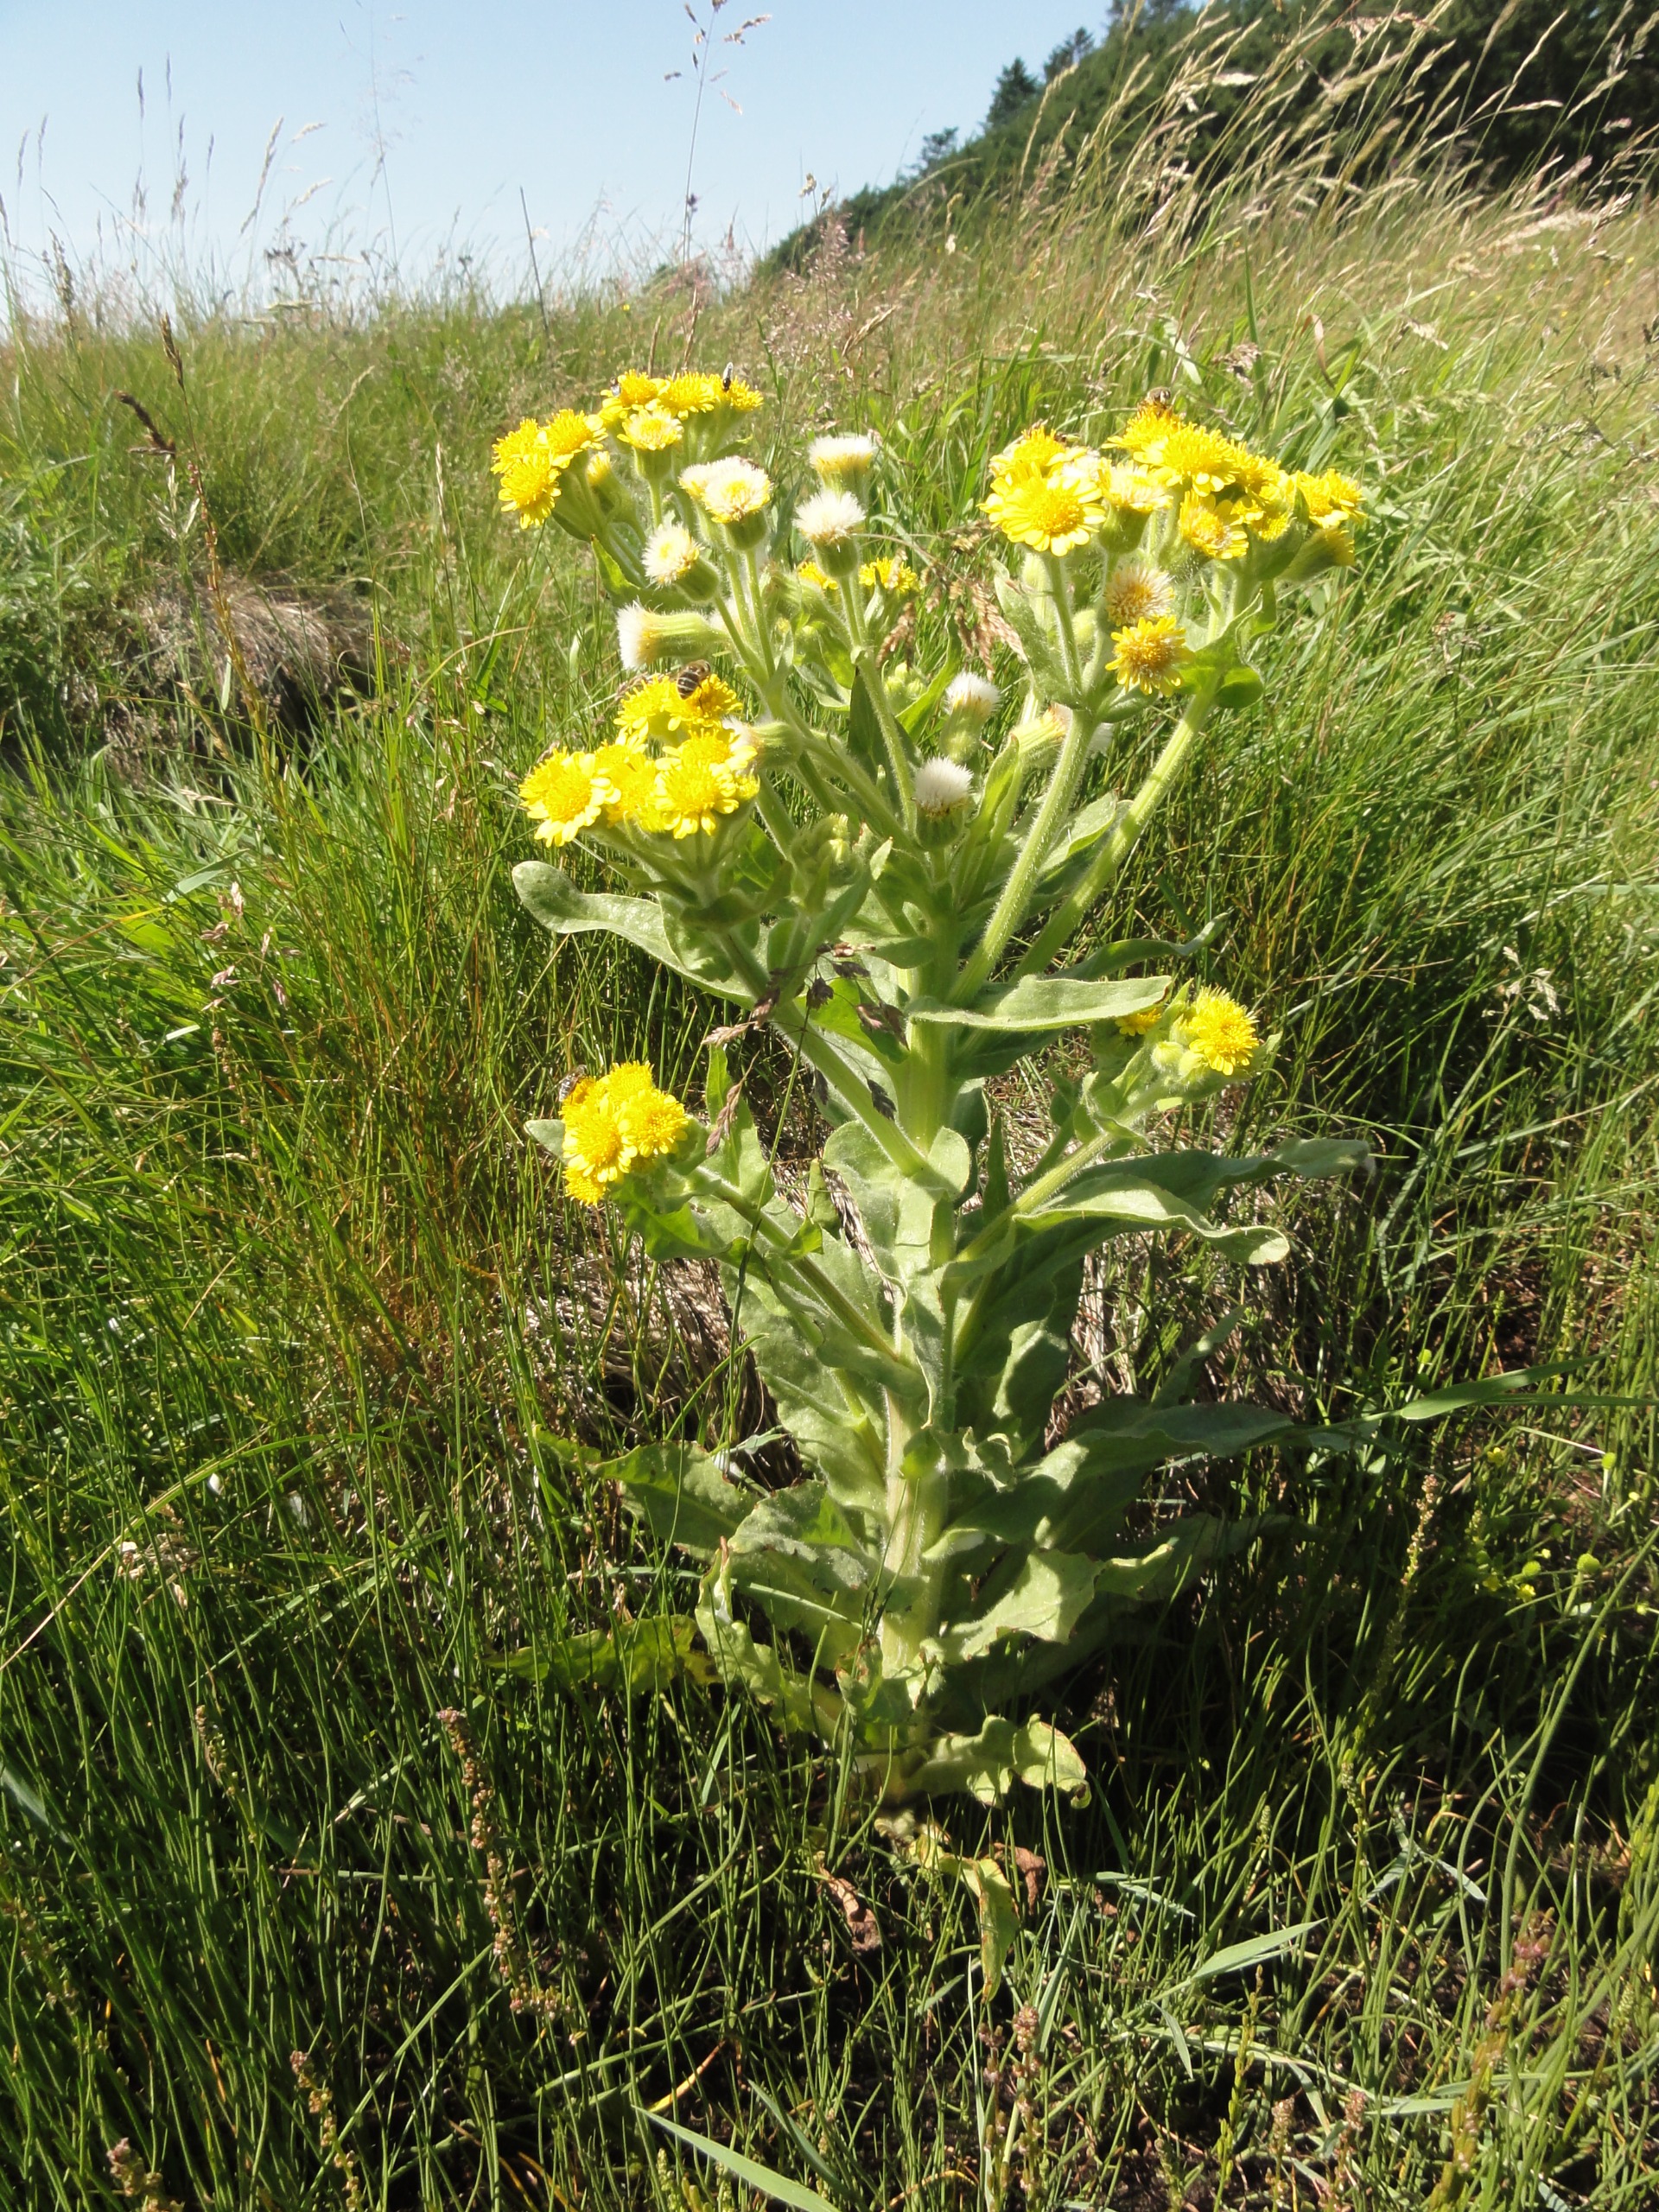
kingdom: Plantae
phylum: Tracheophyta
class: Magnoliopsida
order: Asterales
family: Asteraceae
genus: Tephroseris
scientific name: Tephroseris palustris
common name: Kær-fnokurt
